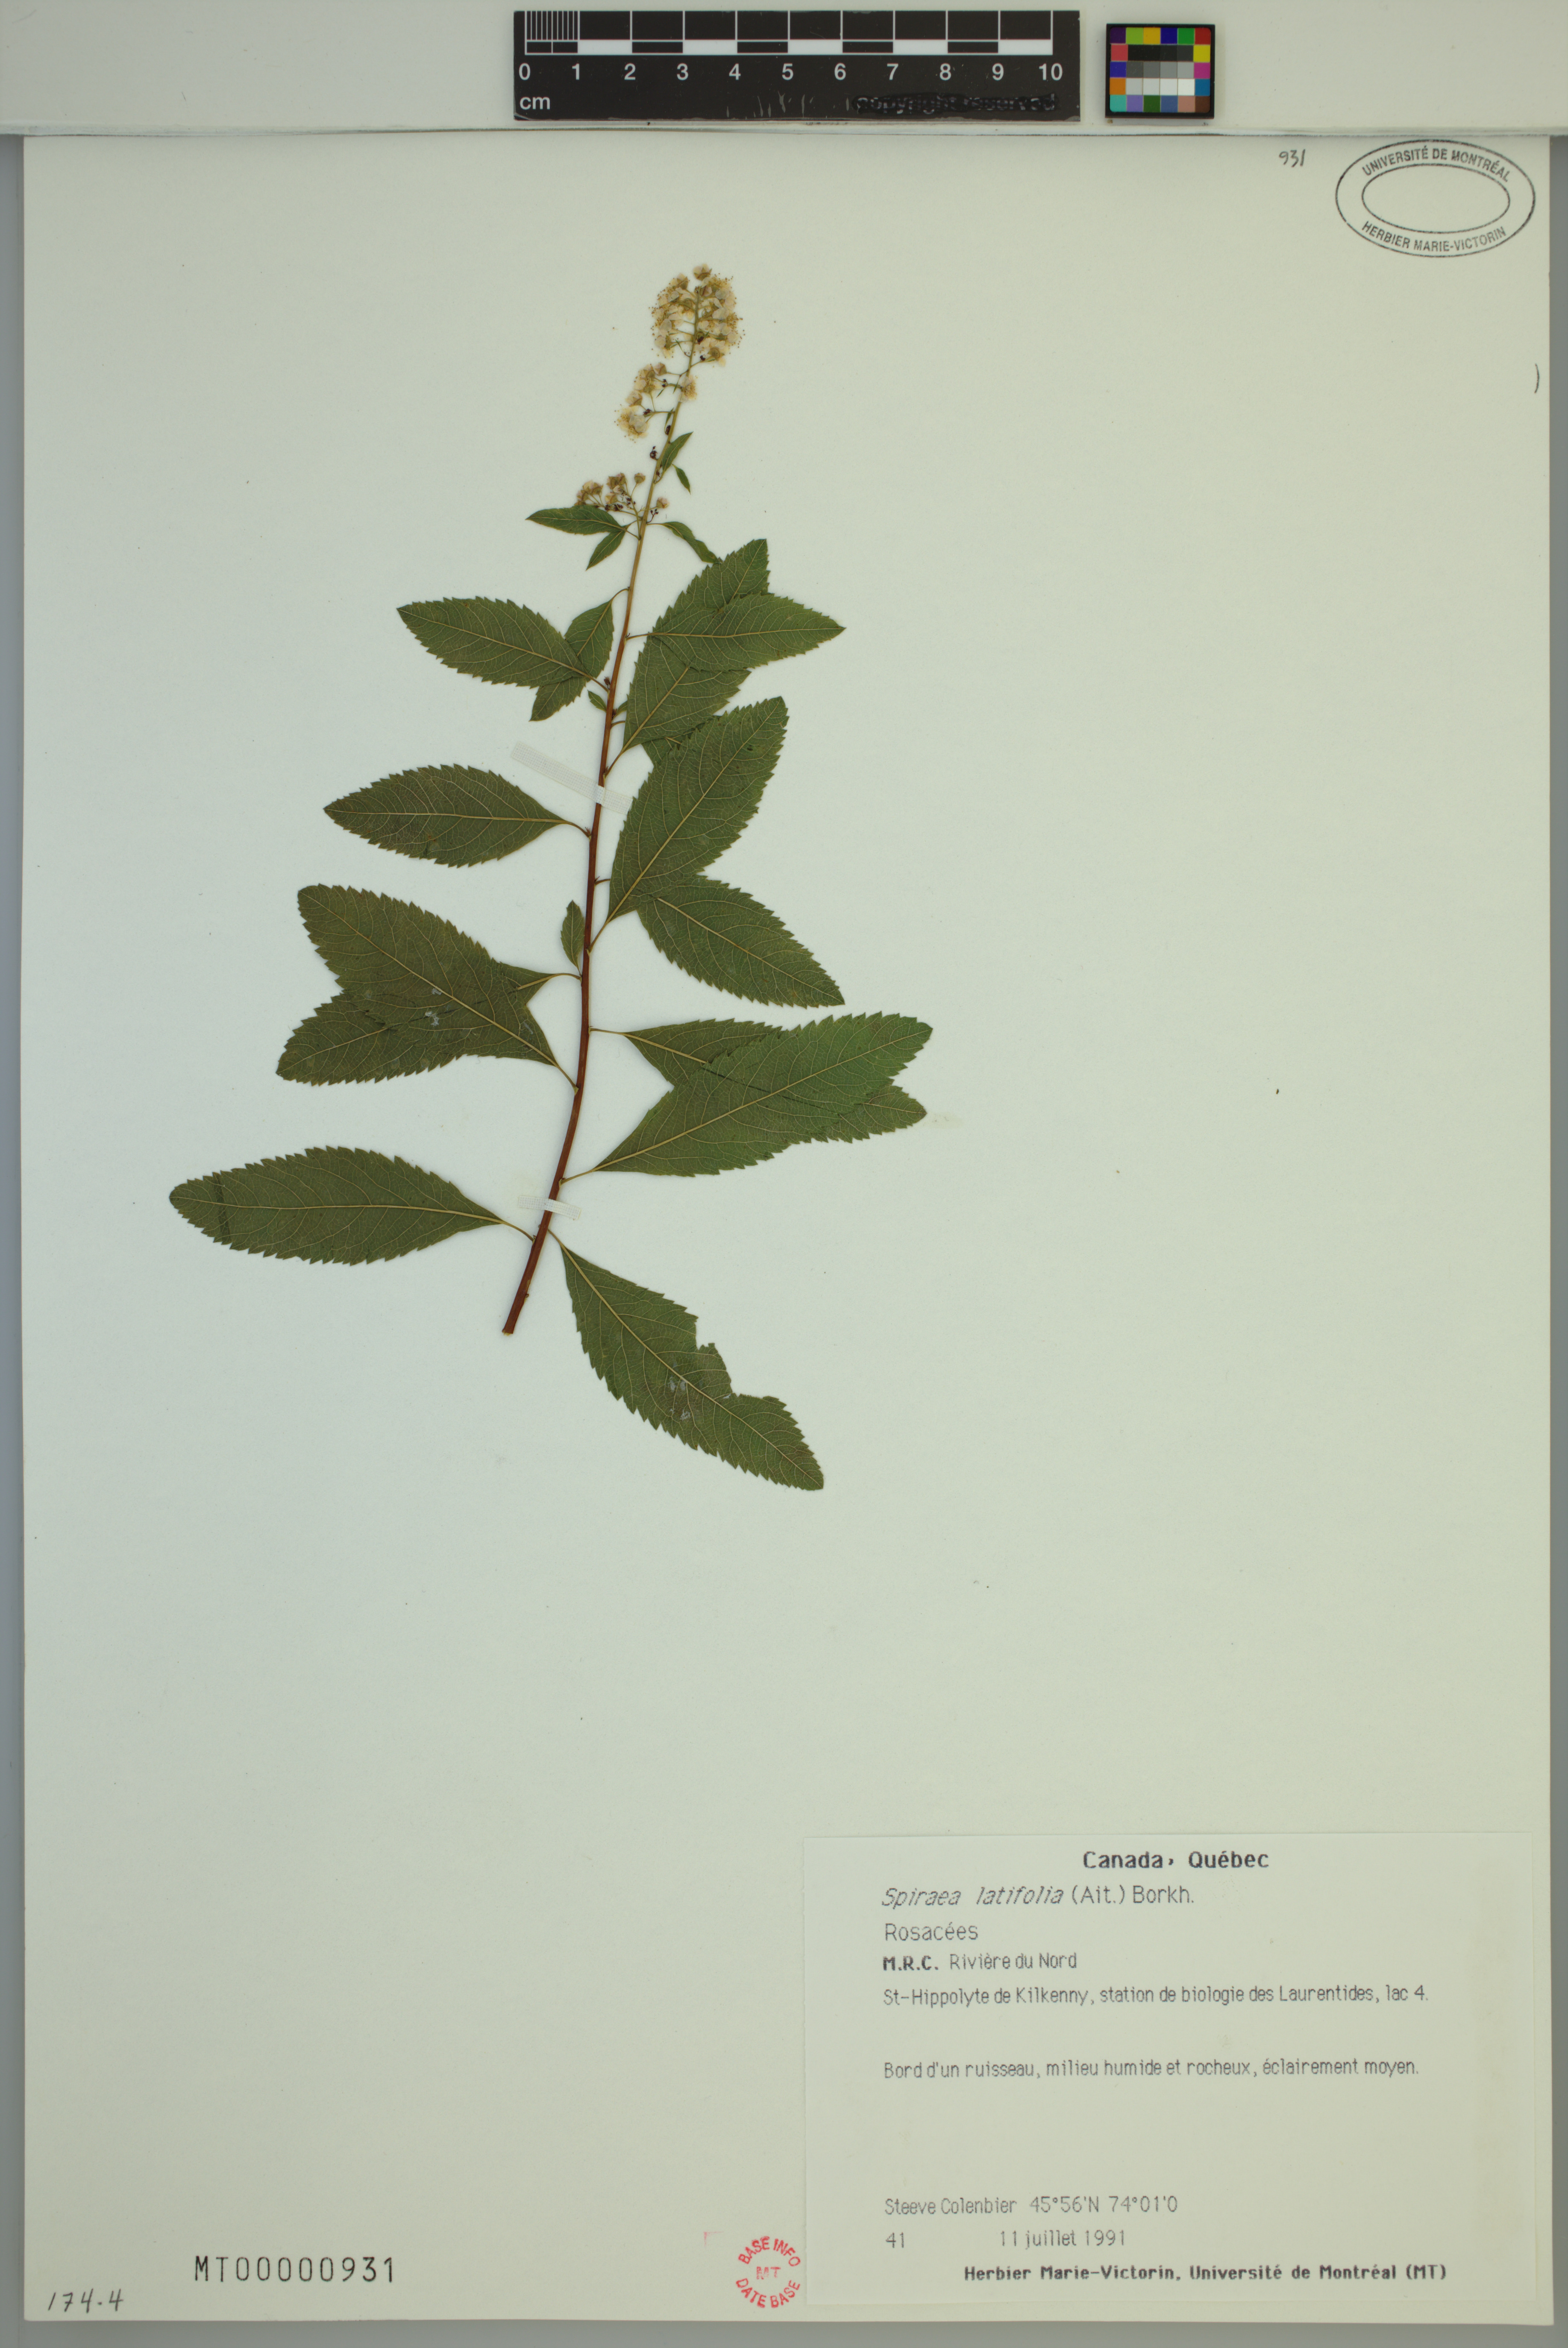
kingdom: Plantae
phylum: Tracheophyta
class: Magnoliopsida
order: Rosales
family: Rosaceae
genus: Spiraea
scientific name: Spiraea alba
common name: Pale bridewort
